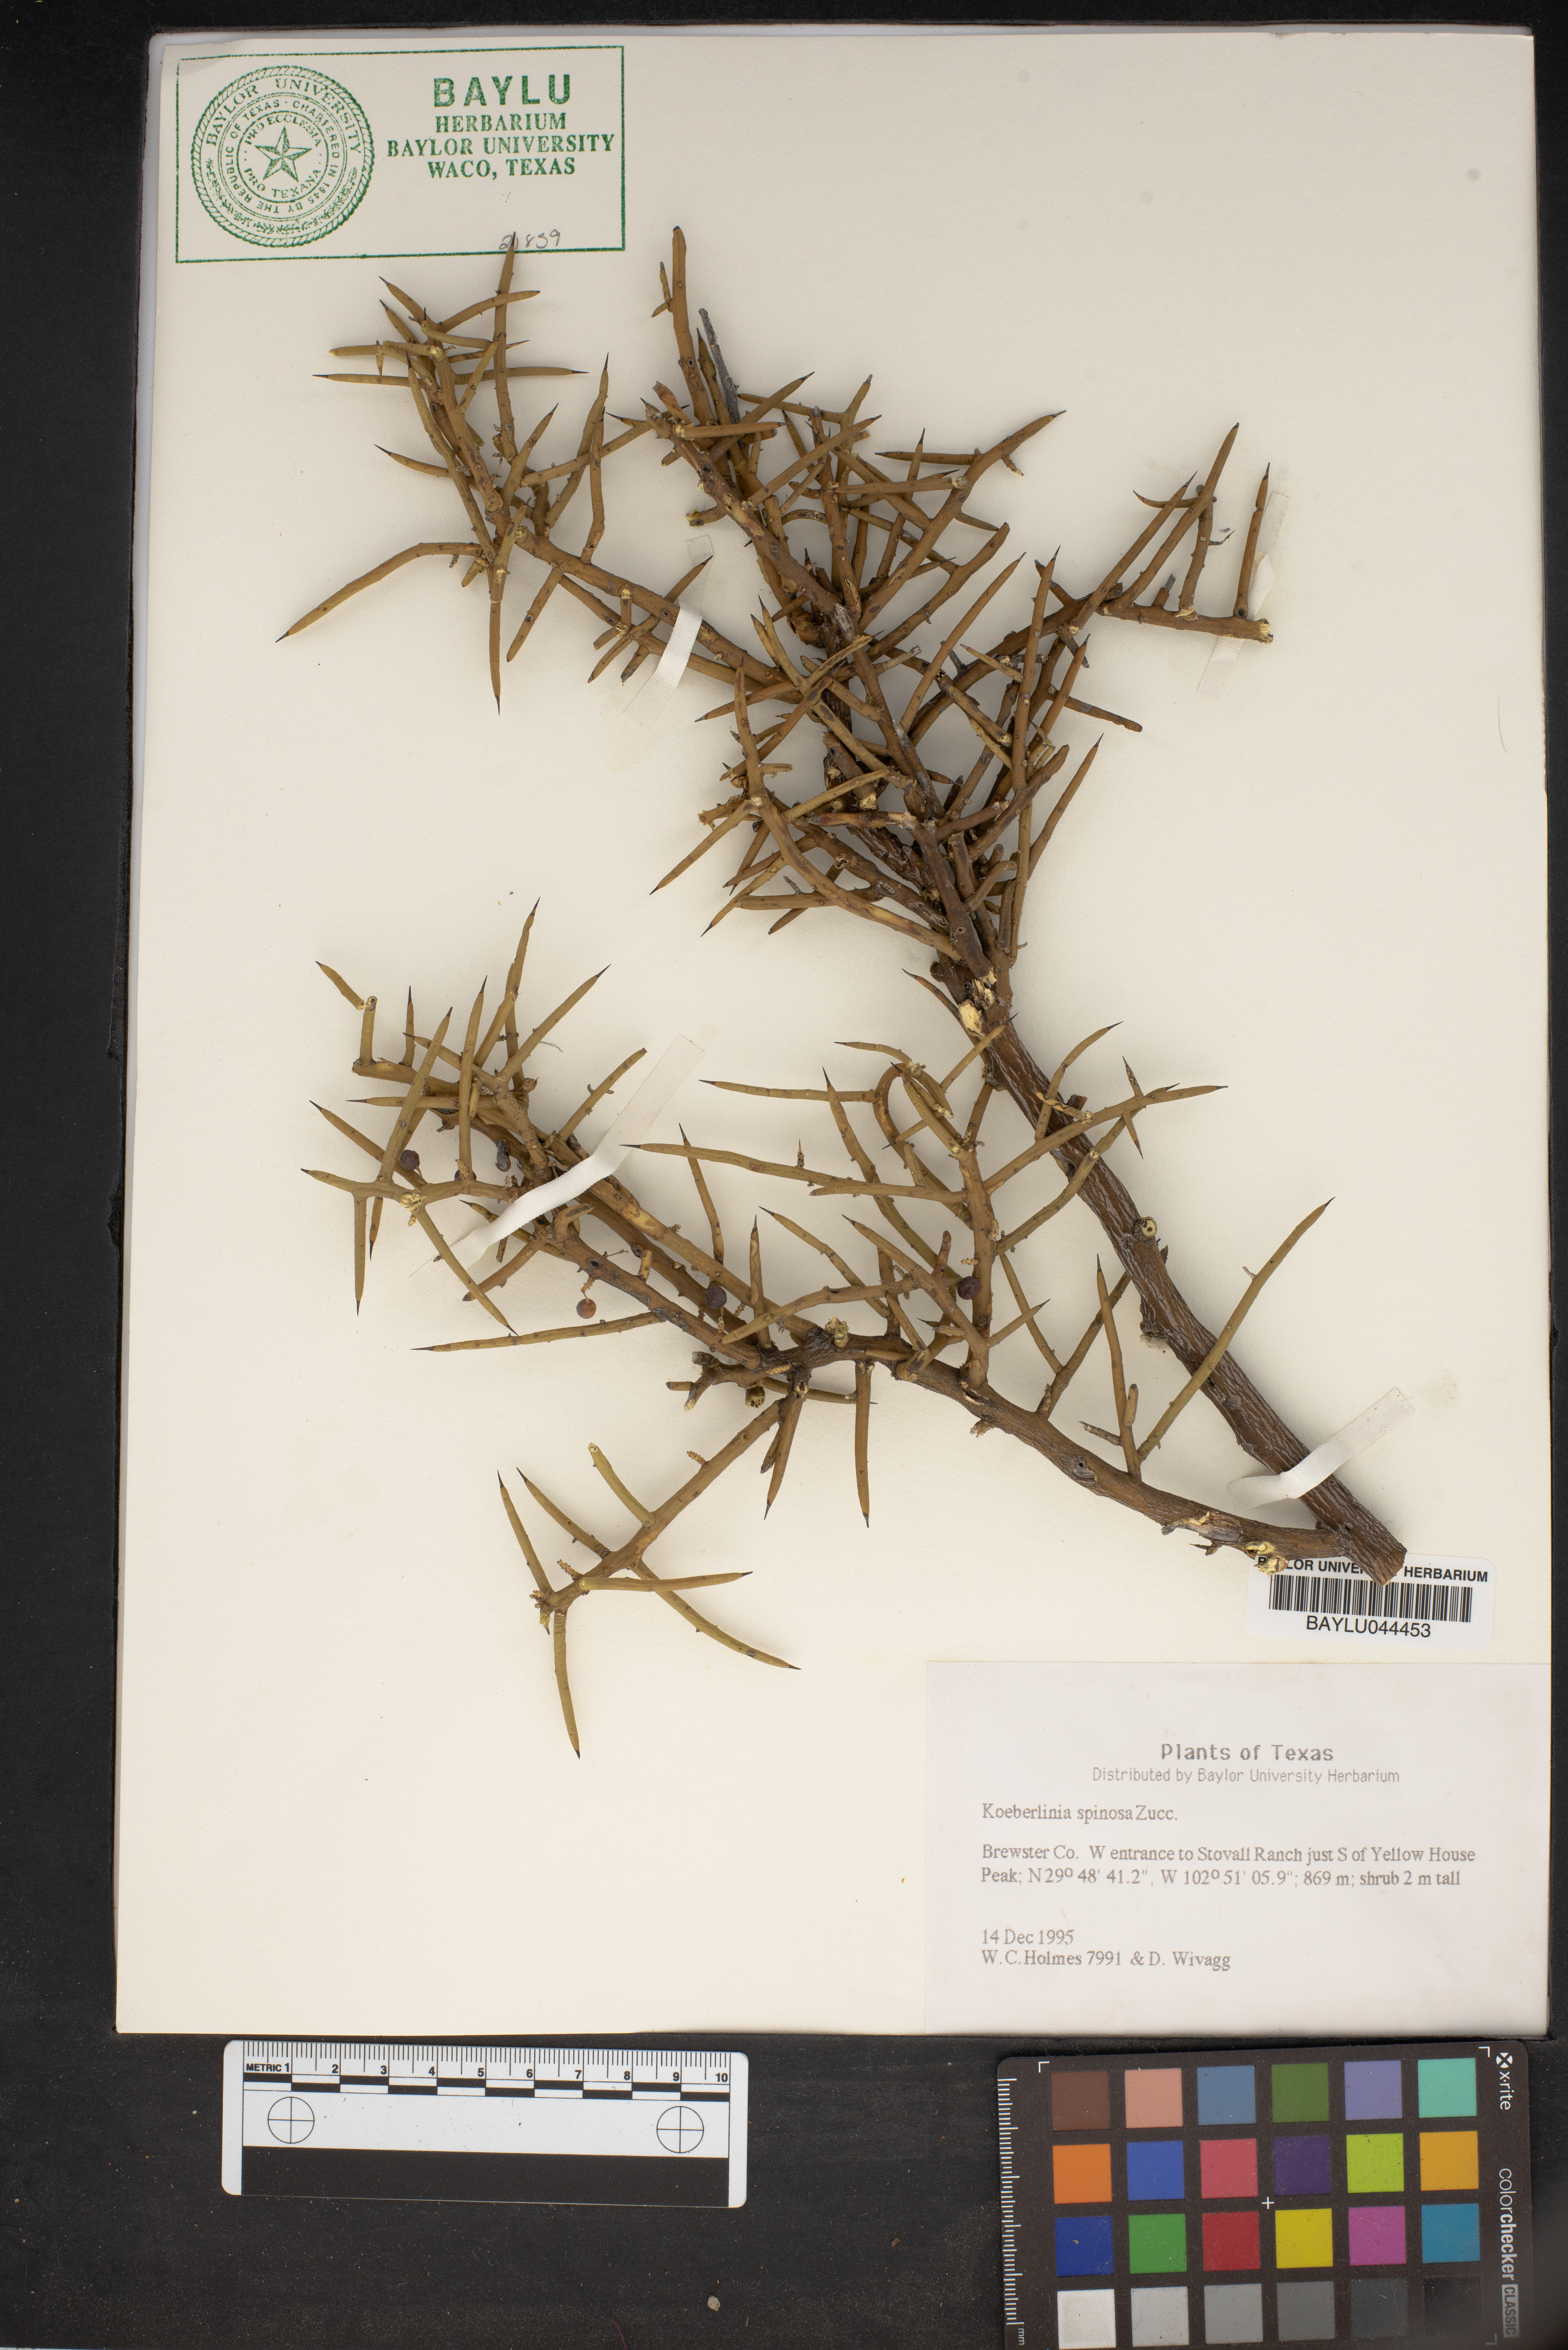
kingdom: Plantae
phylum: Tracheophyta
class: Magnoliopsida
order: Brassicales
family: Koeberliniaceae
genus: Koeberlinia
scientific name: Koeberlinia spinosa
